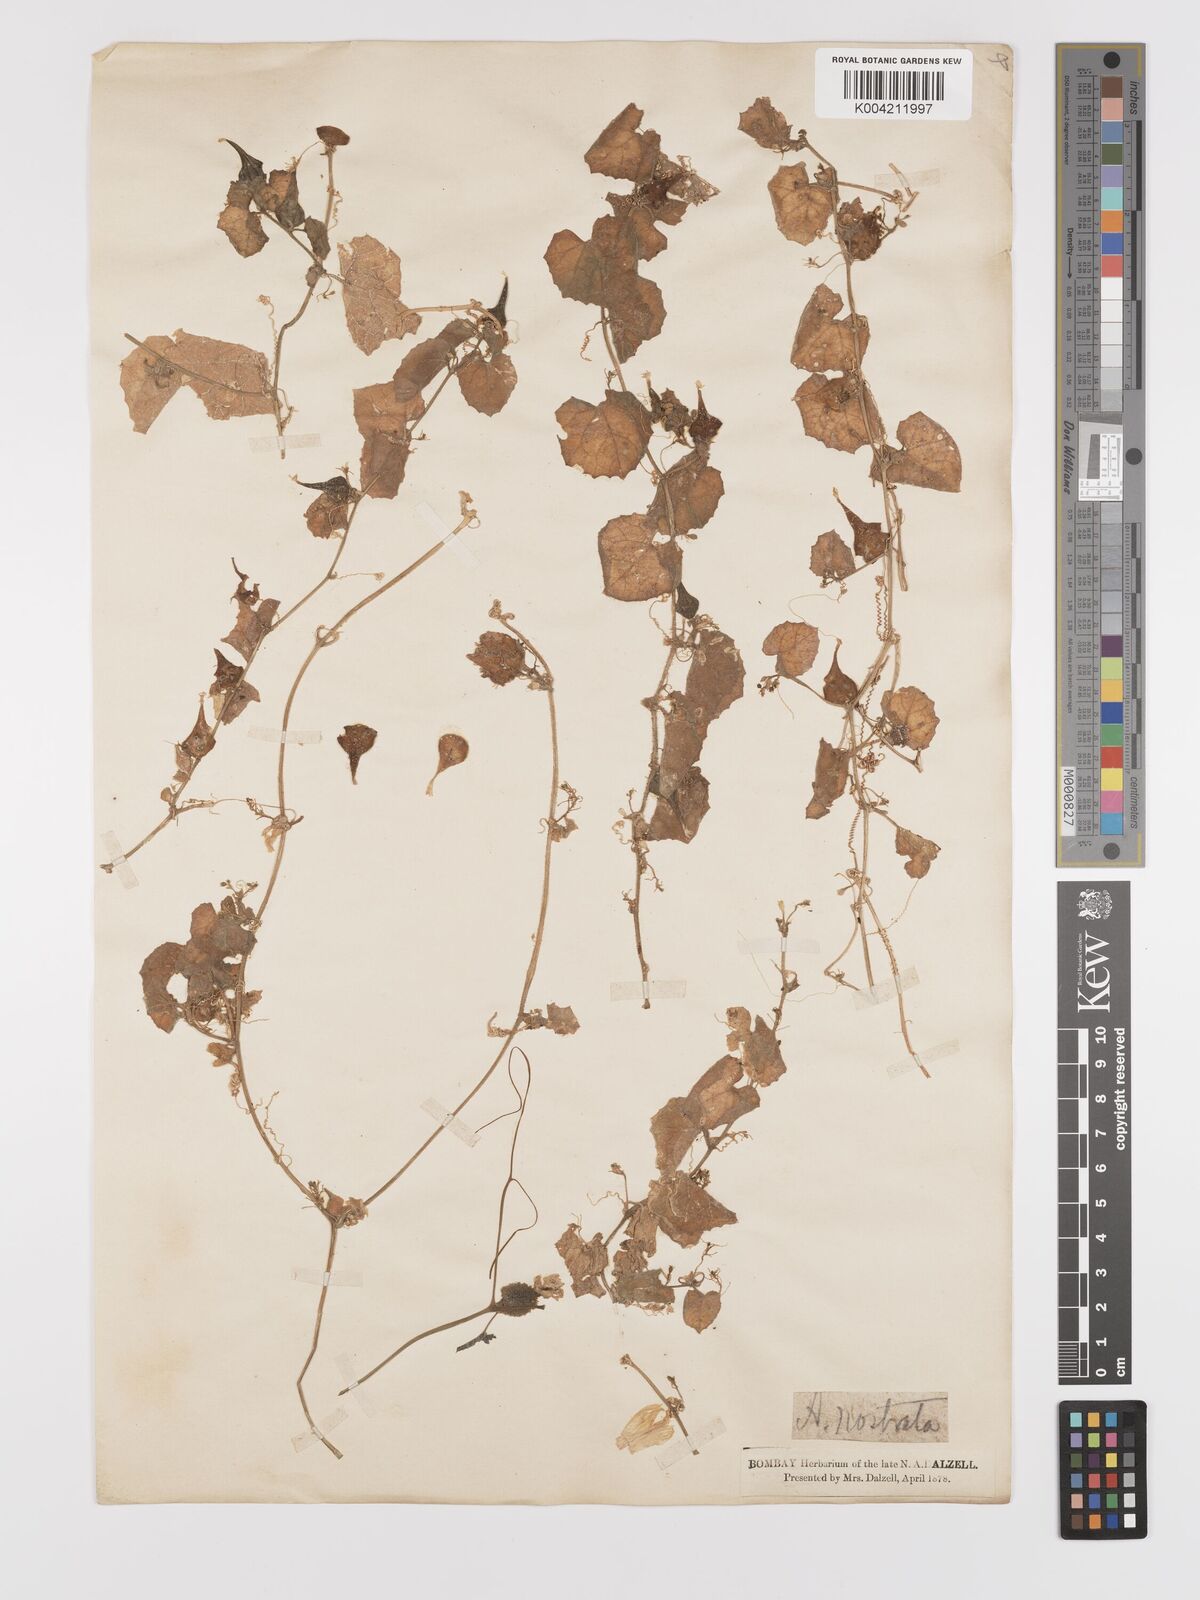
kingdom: Plantae
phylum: Tracheophyta
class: Magnoliopsida
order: Cucurbitales
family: Cucurbitaceae
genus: Kedrostis
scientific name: Kedrostis foetidissima
